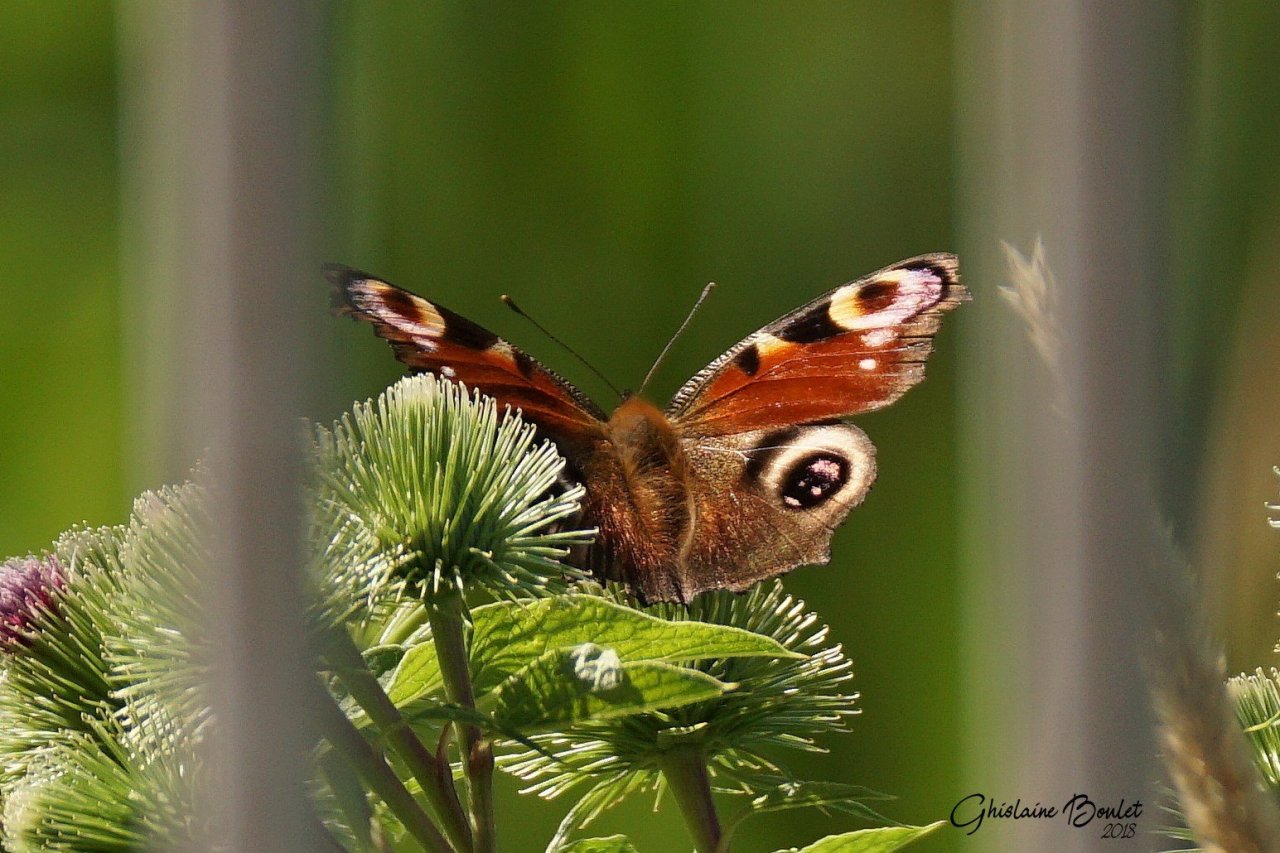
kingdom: Animalia
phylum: Arthropoda
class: Insecta
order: Lepidoptera
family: Nymphalidae
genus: Aglais
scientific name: Aglais io
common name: European Peacock
